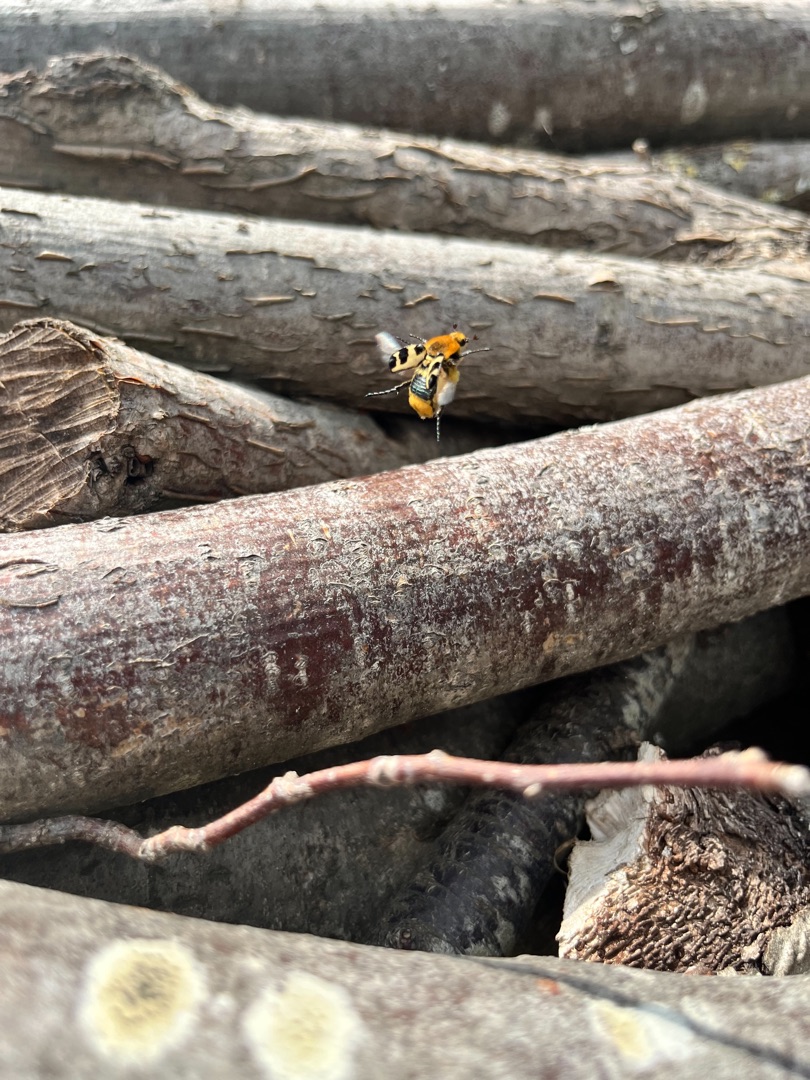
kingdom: Animalia
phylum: Arthropoda
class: Insecta
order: Coleoptera
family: Scarabaeidae
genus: Trichius
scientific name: Trichius gallicus
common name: Lille humlebille
